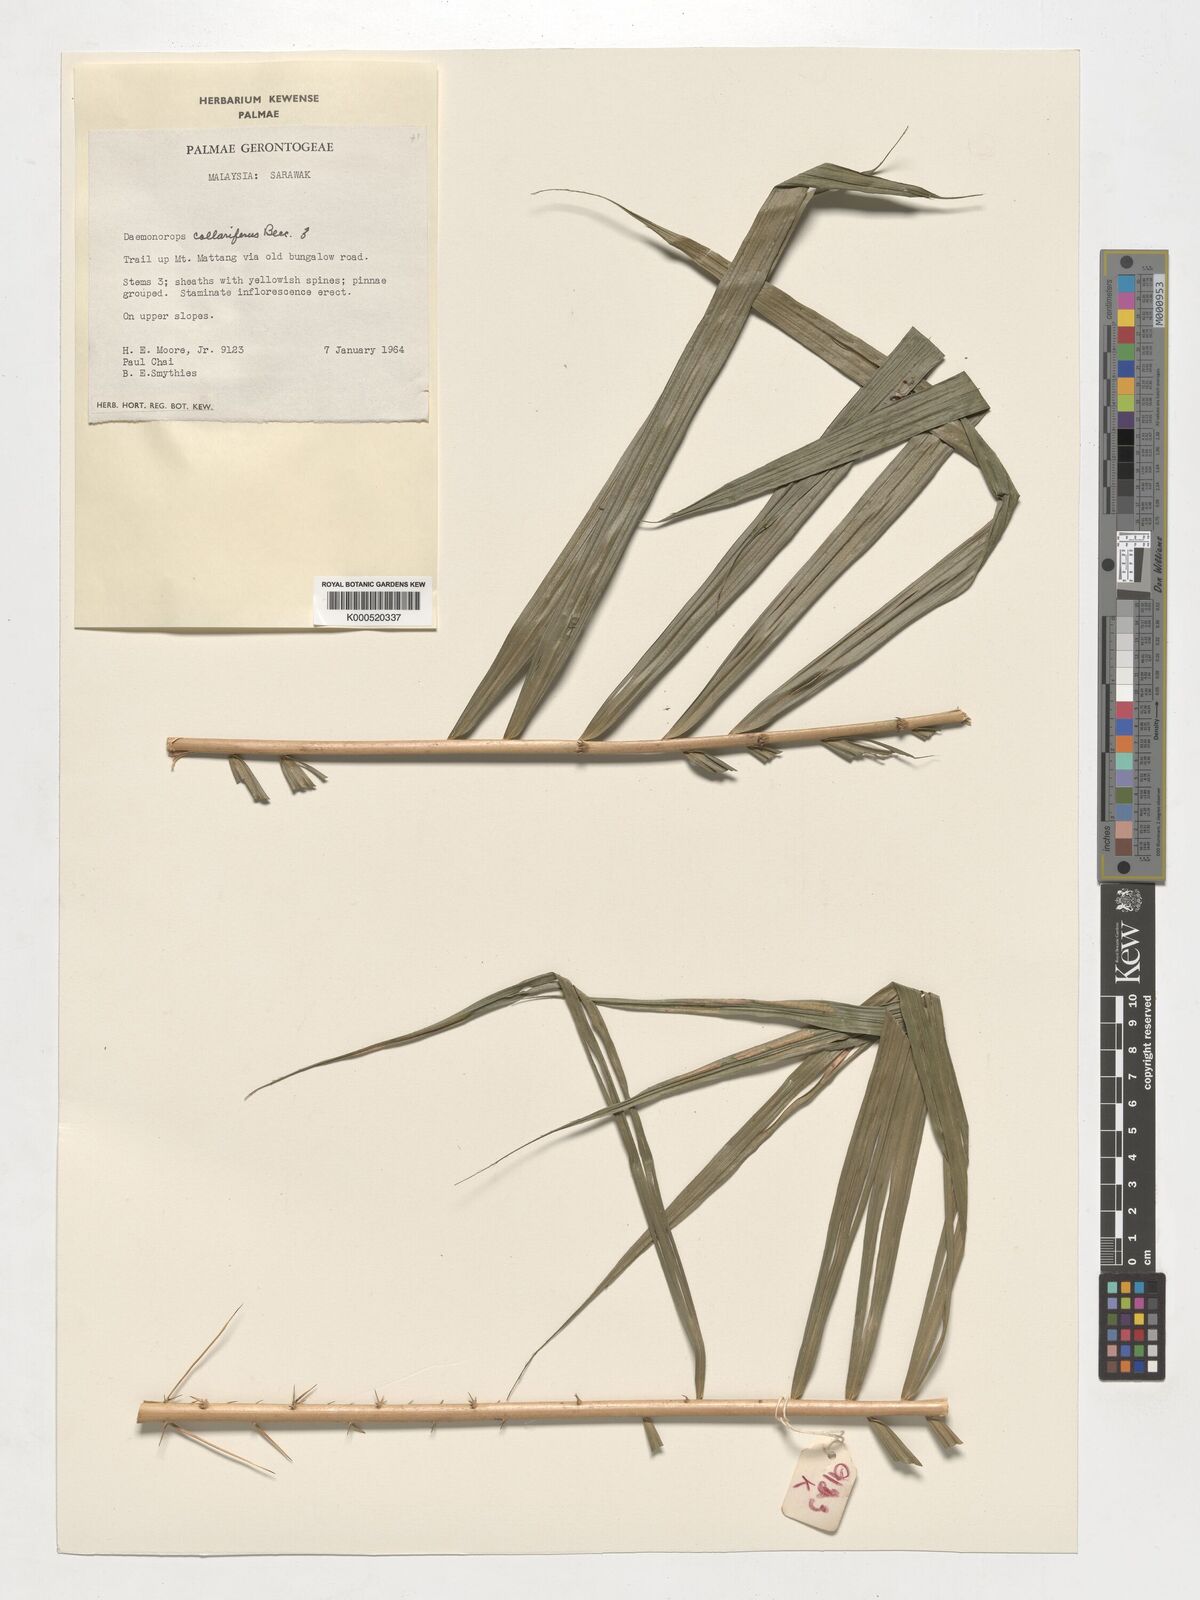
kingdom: Plantae
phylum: Tracheophyta
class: Liliopsida
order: Arecales
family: Arecaceae
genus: Calamus
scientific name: Calamus geniculatus
